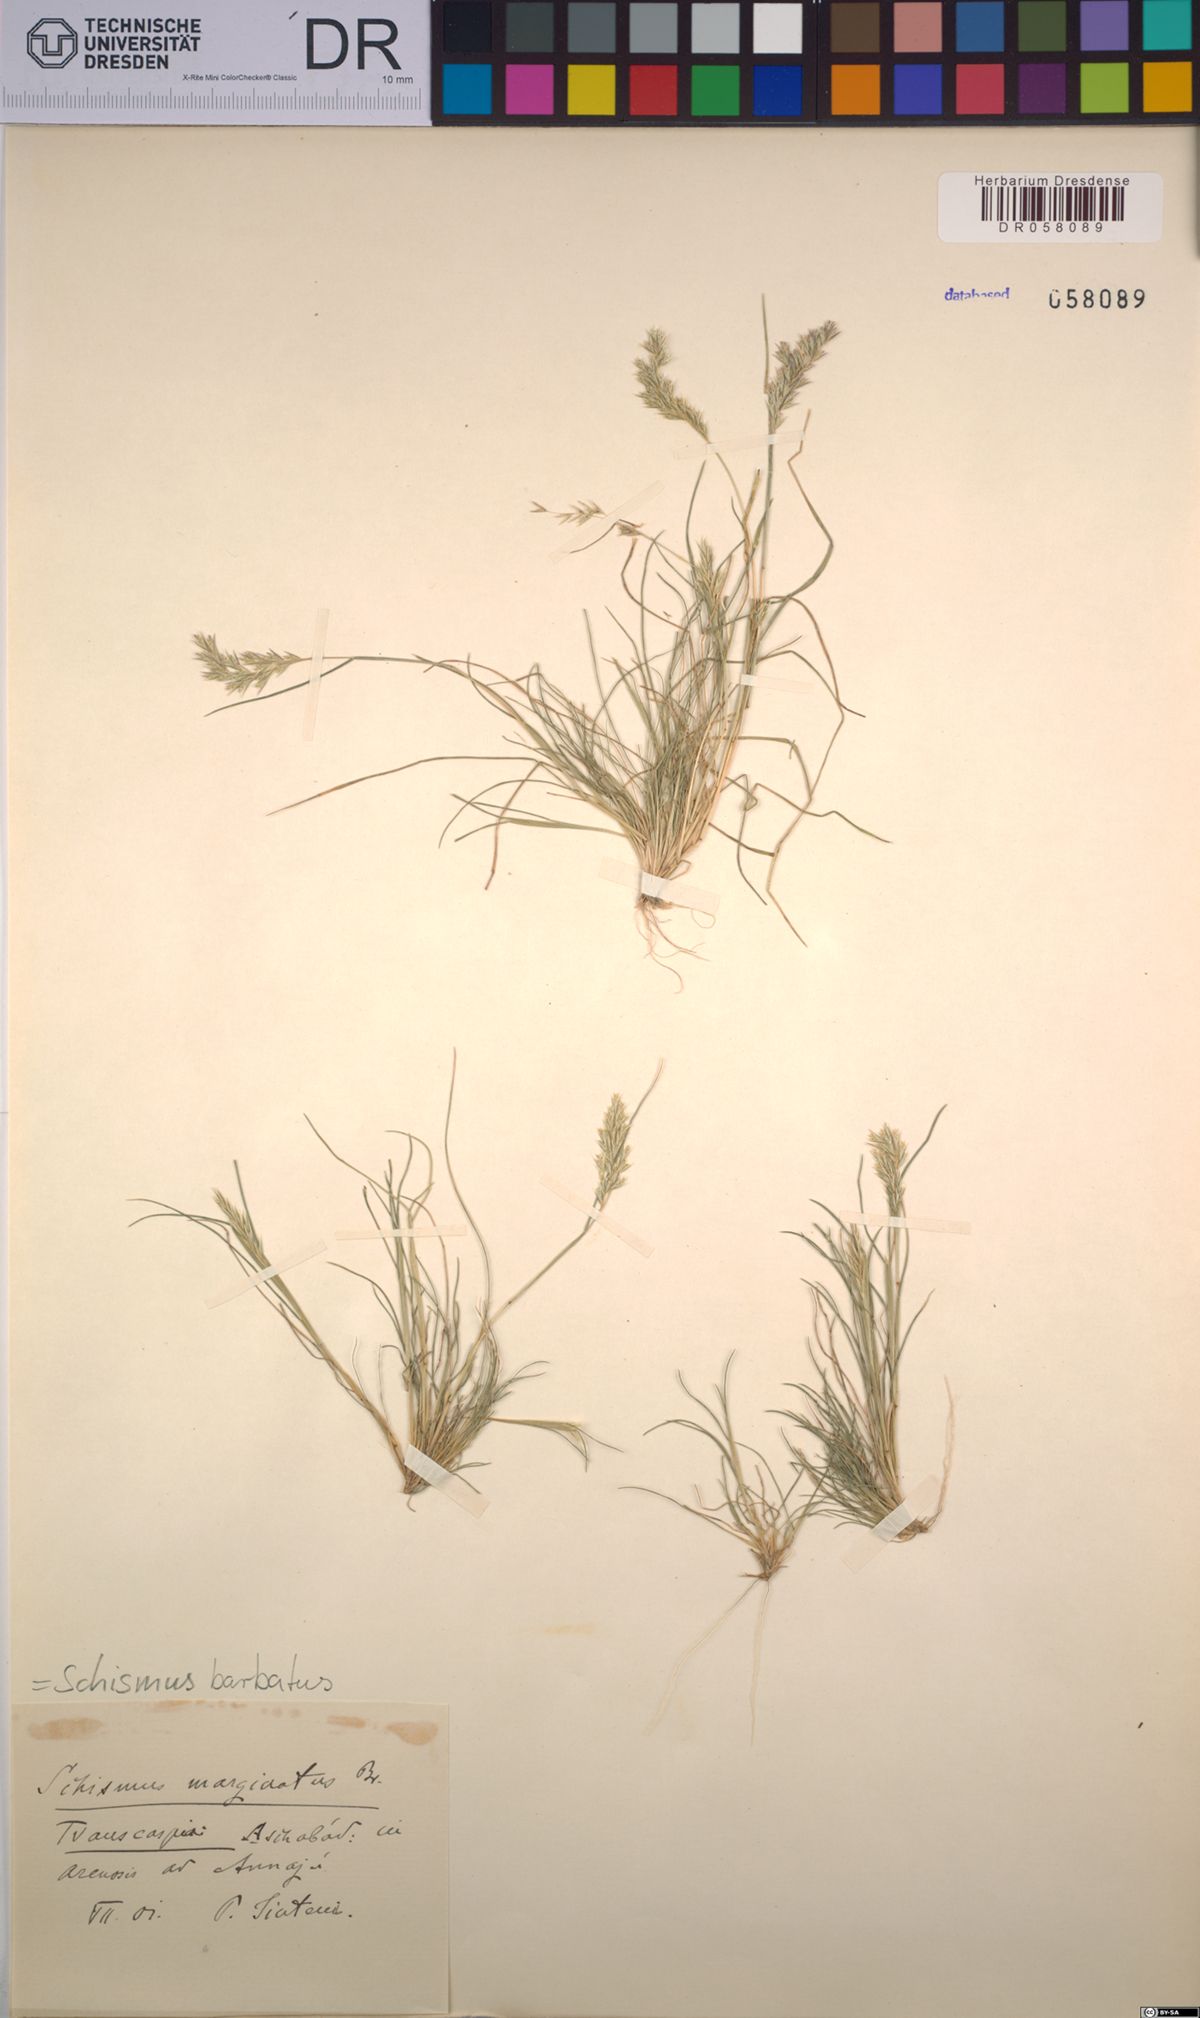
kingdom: Plantae
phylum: Tracheophyta
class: Liliopsida
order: Poales
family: Poaceae
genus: Schismus
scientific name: Schismus barbatus
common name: Kelch-grass
